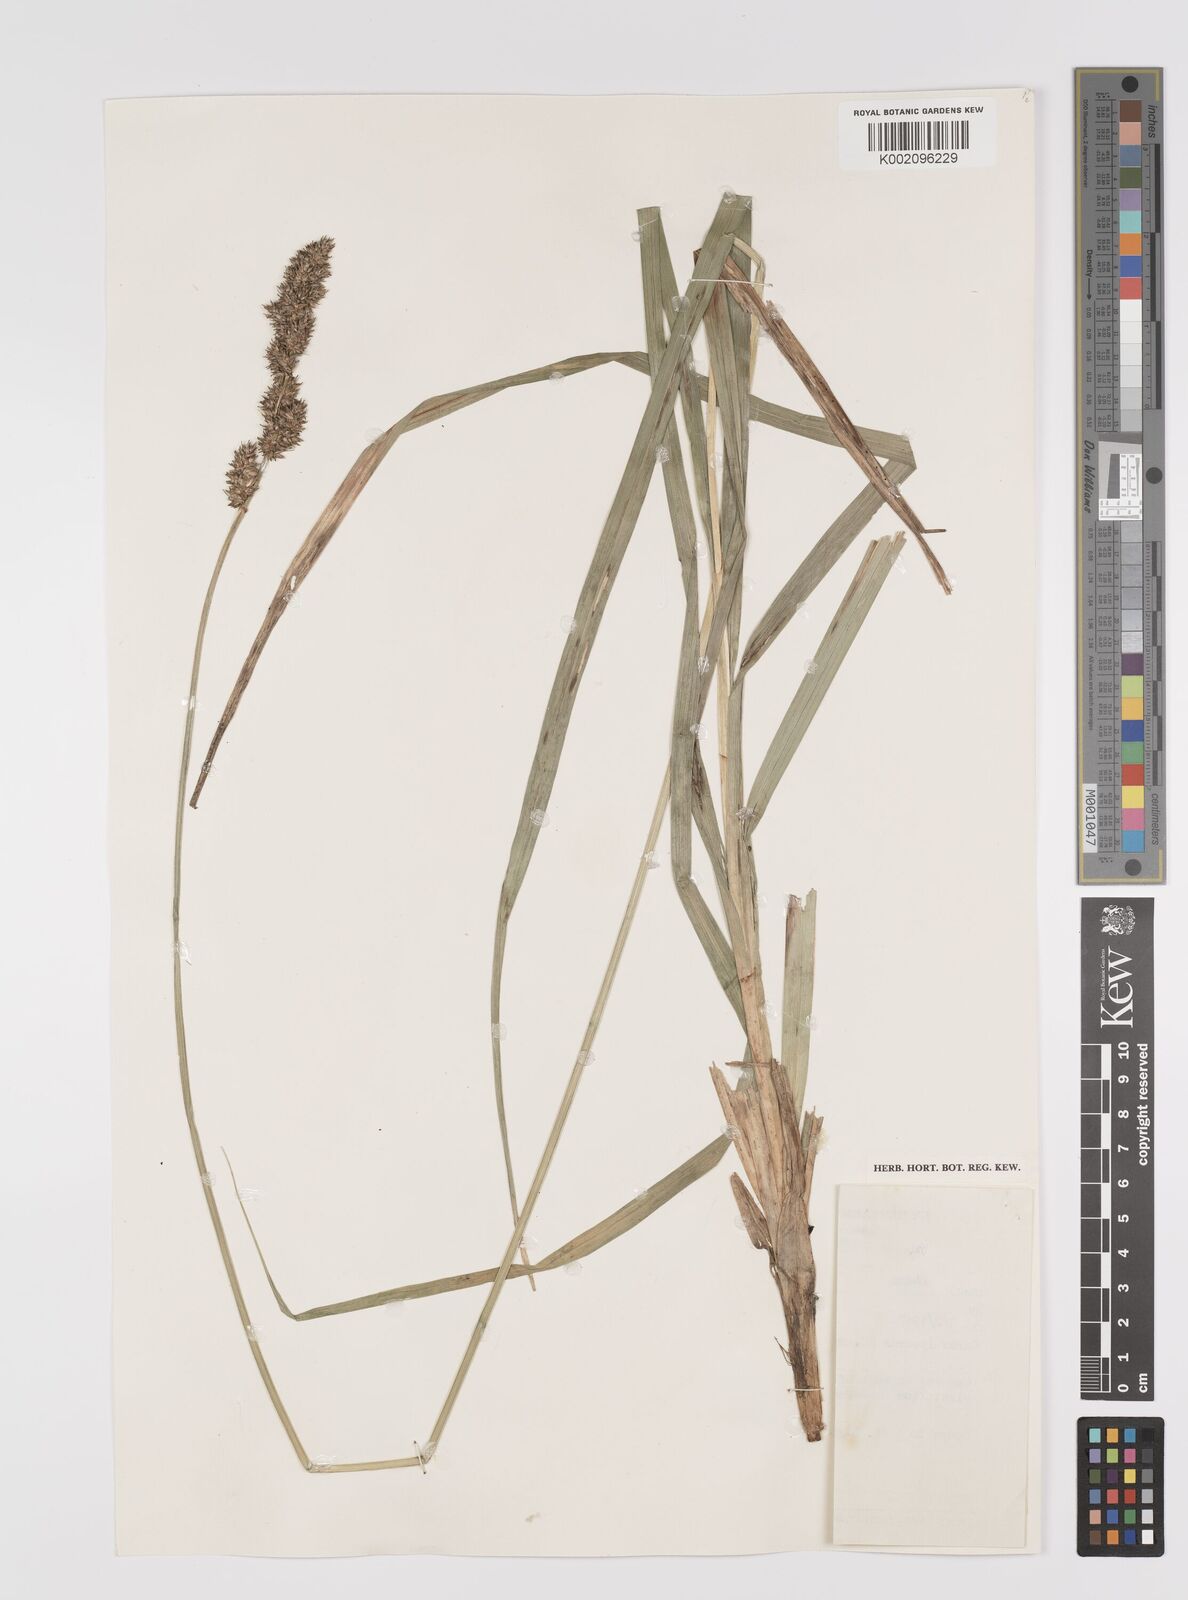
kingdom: Plantae
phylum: Tracheophyta
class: Liliopsida
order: Poales
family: Cyperaceae
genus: Carex
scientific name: Carex lycurus
